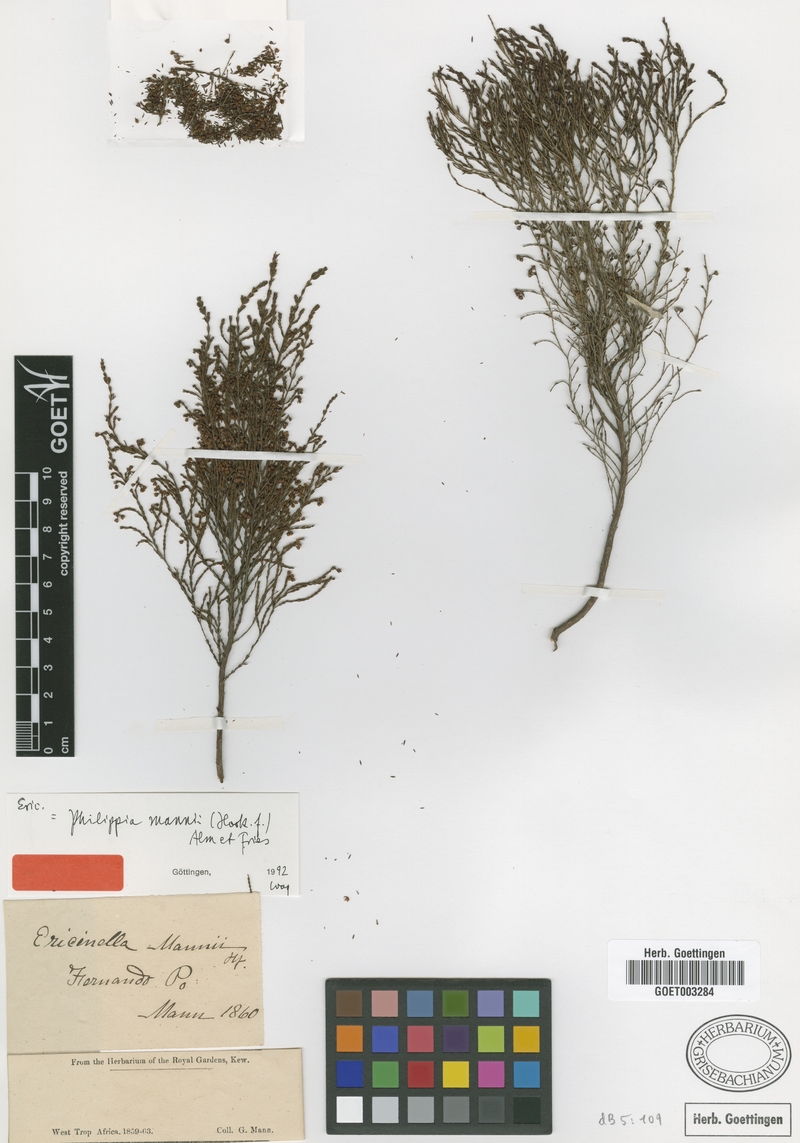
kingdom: Plantae
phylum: Tracheophyta
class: Magnoliopsida
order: Ericales
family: Ericaceae
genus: Erica
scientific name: Erica mannii
